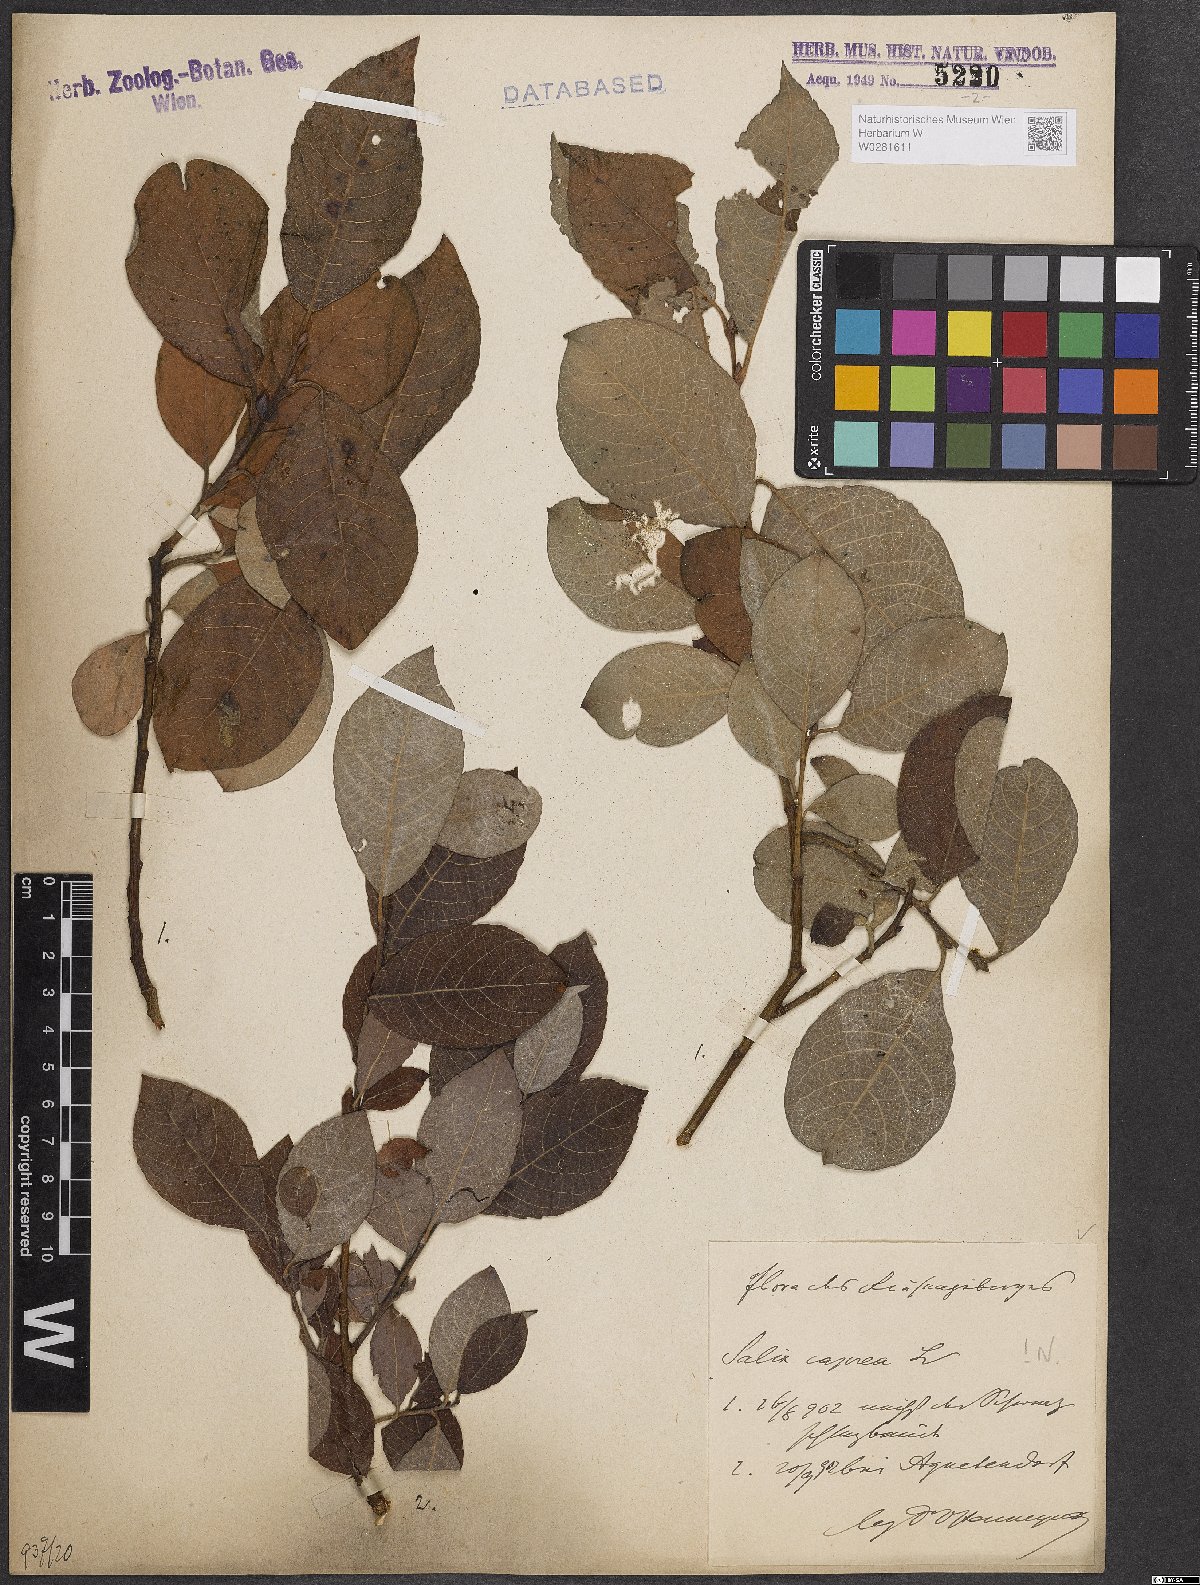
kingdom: Plantae
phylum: Tracheophyta
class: Magnoliopsida
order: Malpighiales
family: Salicaceae
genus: Salix
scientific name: Salix caprea
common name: Goat willow
